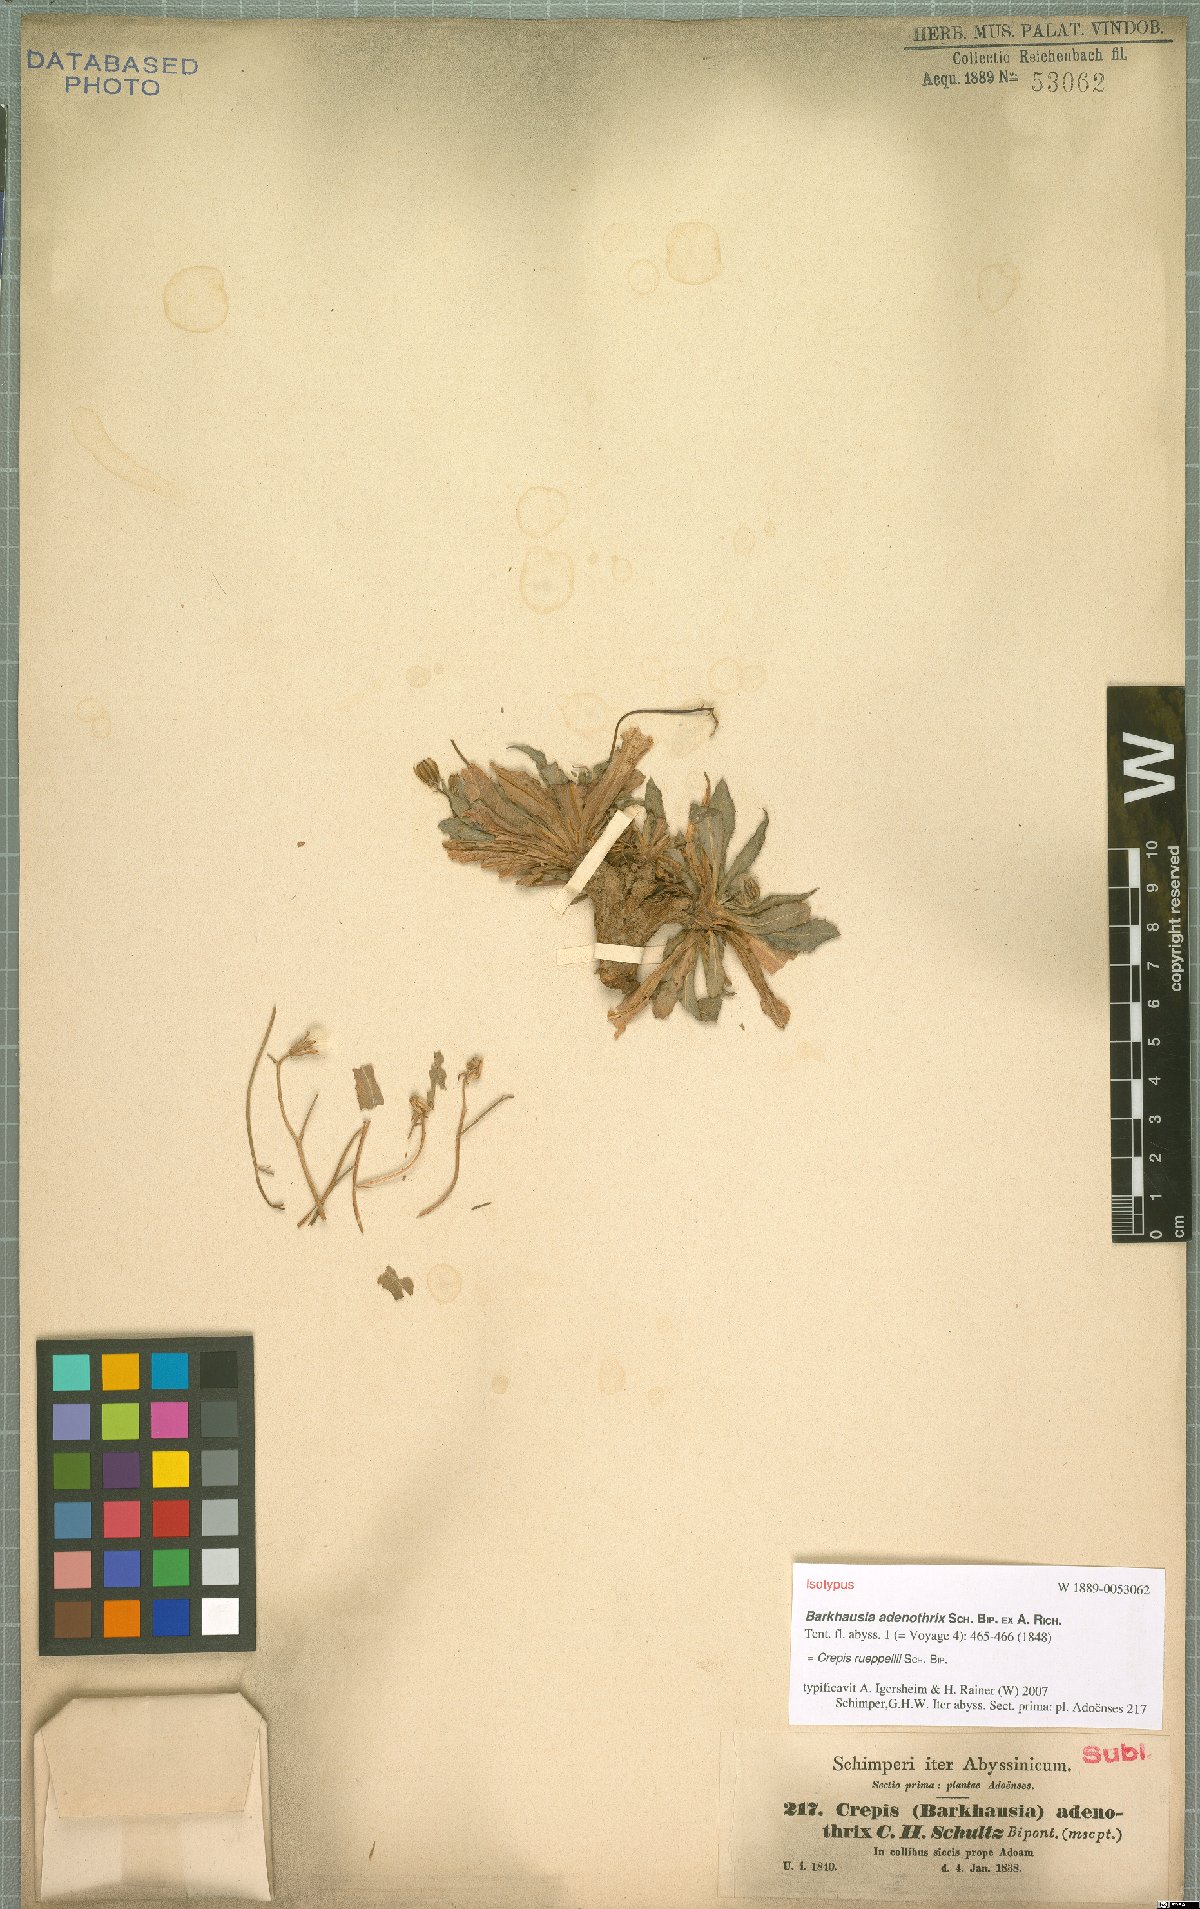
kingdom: Plantae
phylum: Tracheophyta
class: Magnoliopsida
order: Asterales
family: Asteraceae
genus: Crepis
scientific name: Crepis rueppellii
